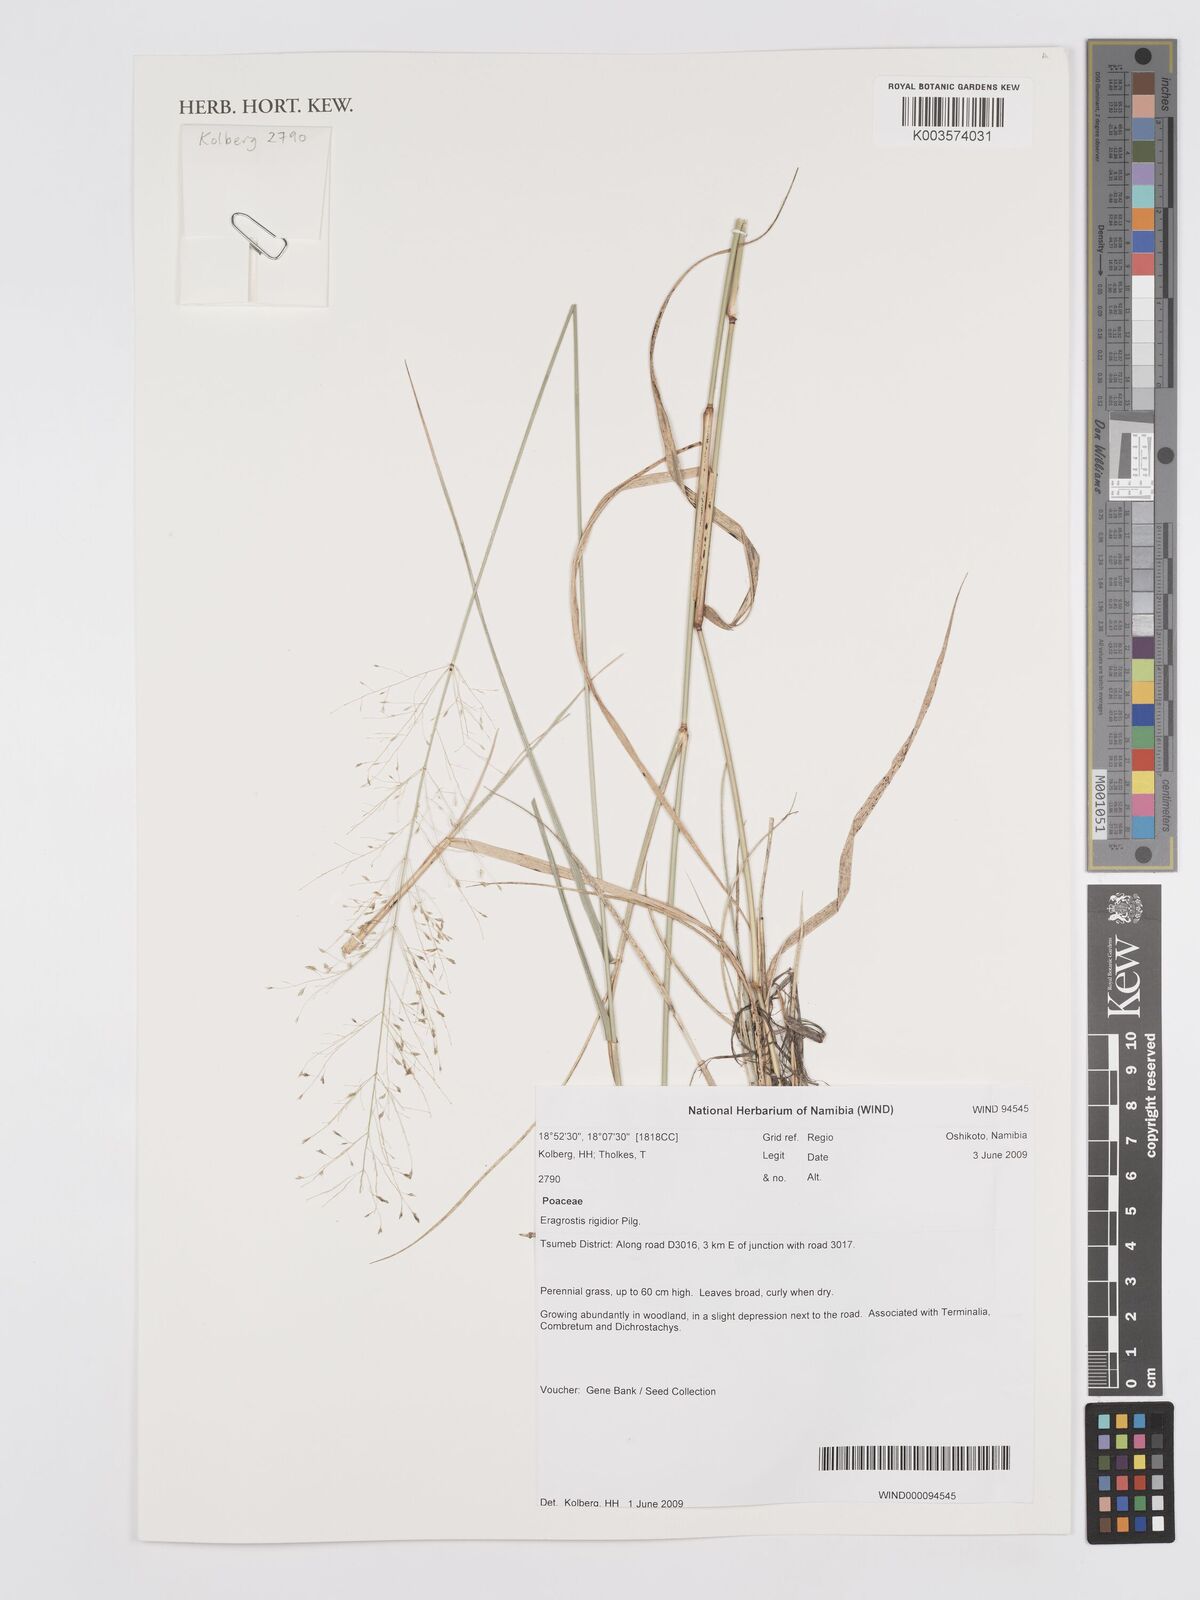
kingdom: Plantae
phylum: Tracheophyta
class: Liliopsida
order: Poales
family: Poaceae
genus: Eragrostis
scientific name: Eragrostis cylindriflora
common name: Cylinderflower lovegrass
